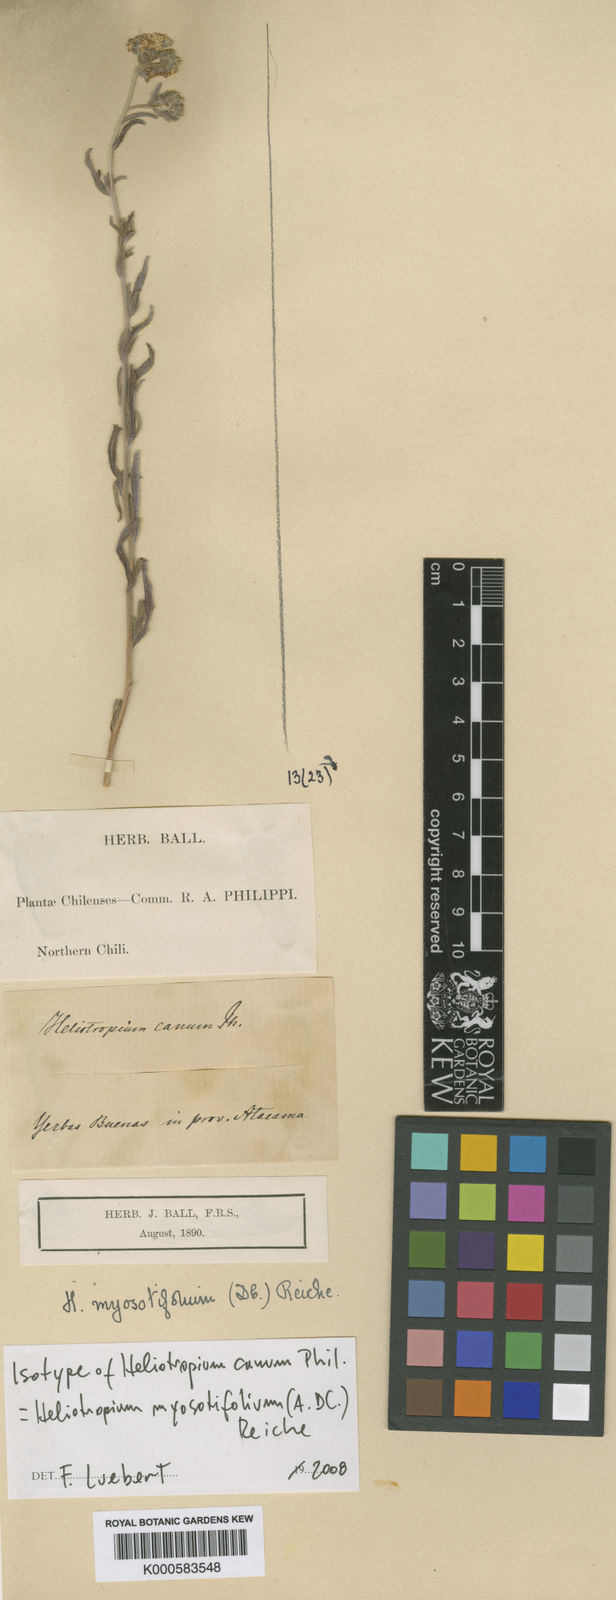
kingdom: Plantae
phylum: Tracheophyta
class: Magnoliopsida
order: Boraginales
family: Heliotropiaceae
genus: Heliotropium
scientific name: Heliotropium myosotifolium
